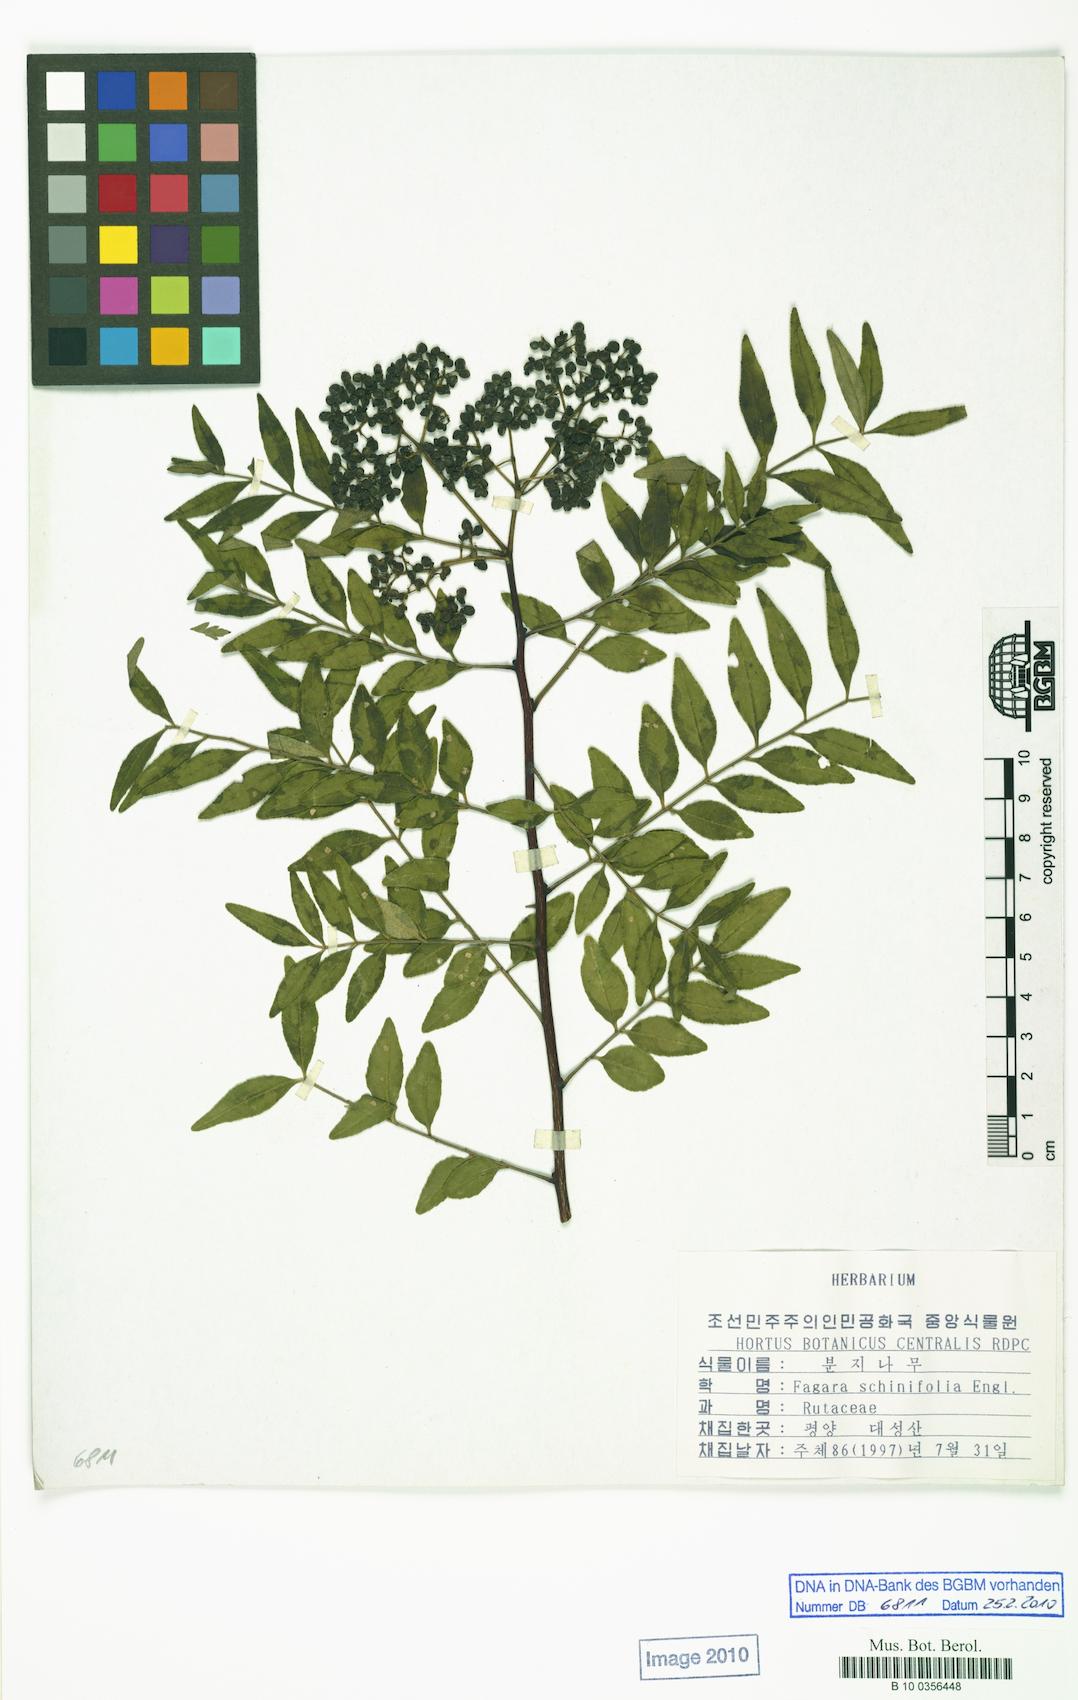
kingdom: Plantae
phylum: Tracheophyta
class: Magnoliopsida
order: Sapindales
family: Rutaceae
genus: Zanthoxylum
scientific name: Zanthoxylum schinifolium
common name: Sichuan-pepper
